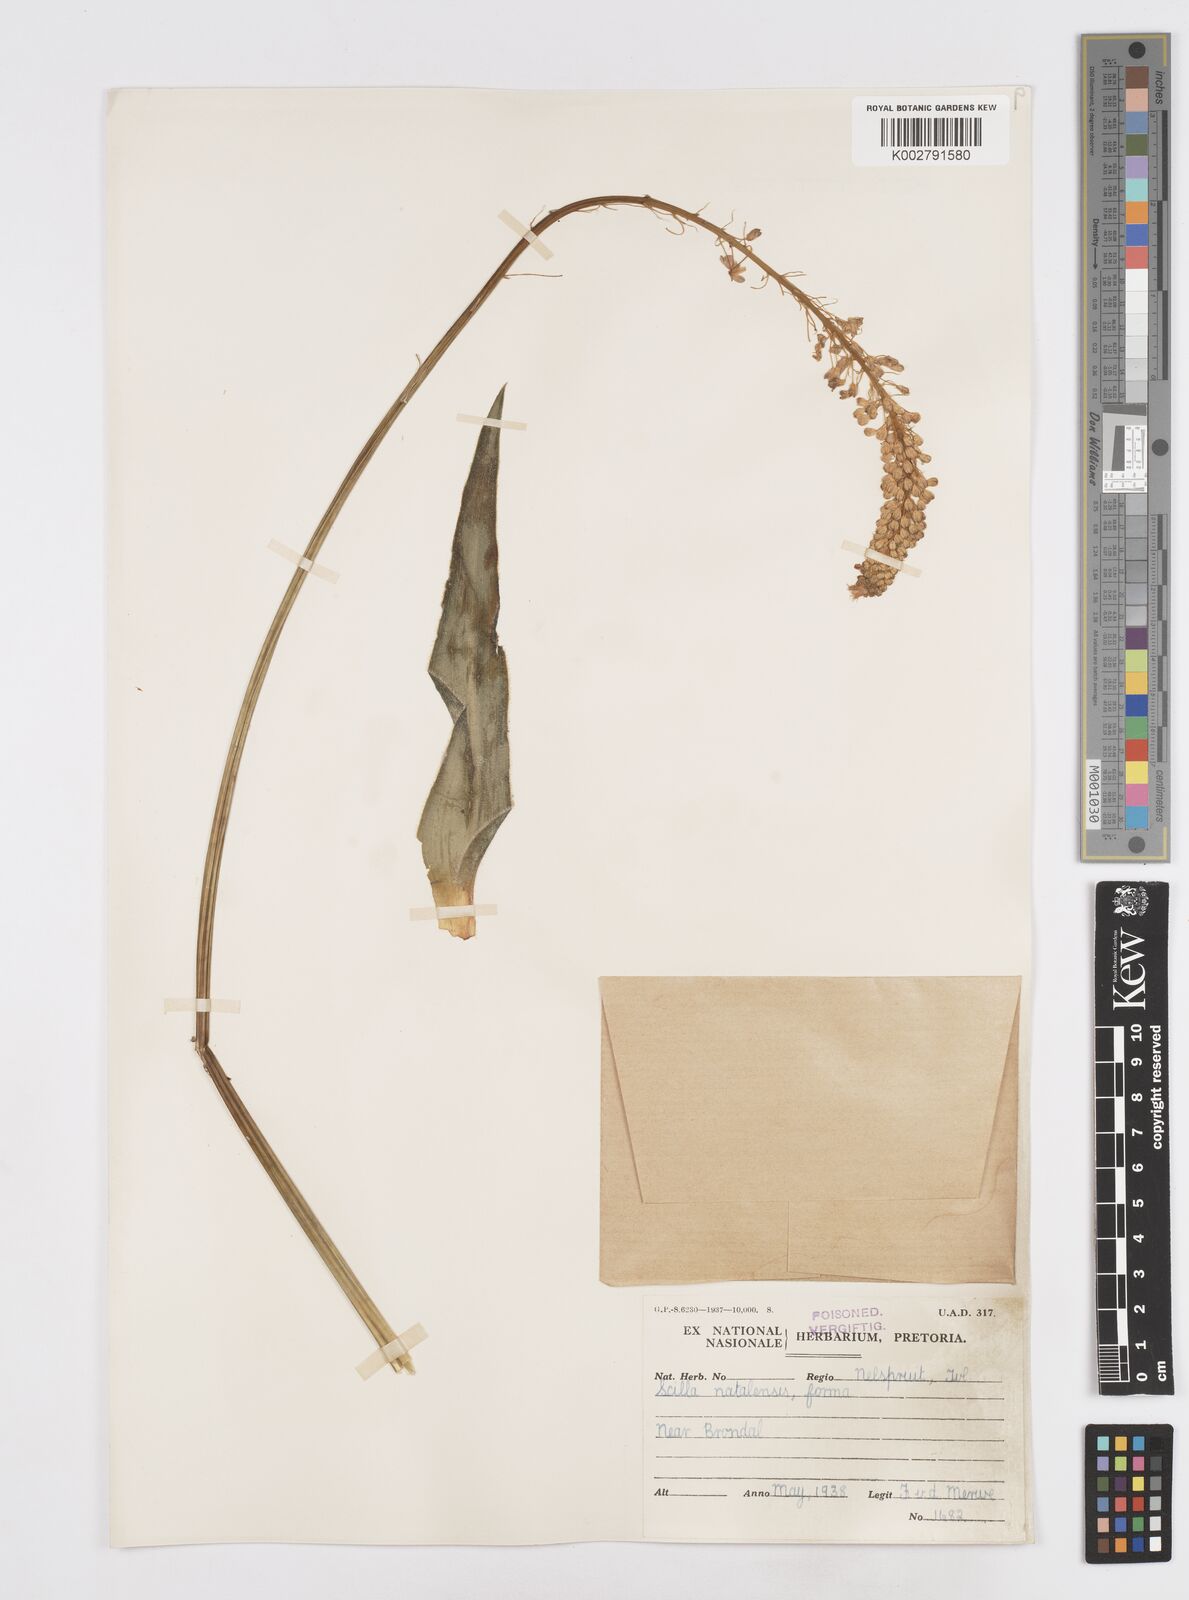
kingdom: Plantae
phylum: Tracheophyta
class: Liliopsida
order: Asparagales
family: Asparagaceae
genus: Merwilla
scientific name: Merwilla plumbea
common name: Blue-squill
